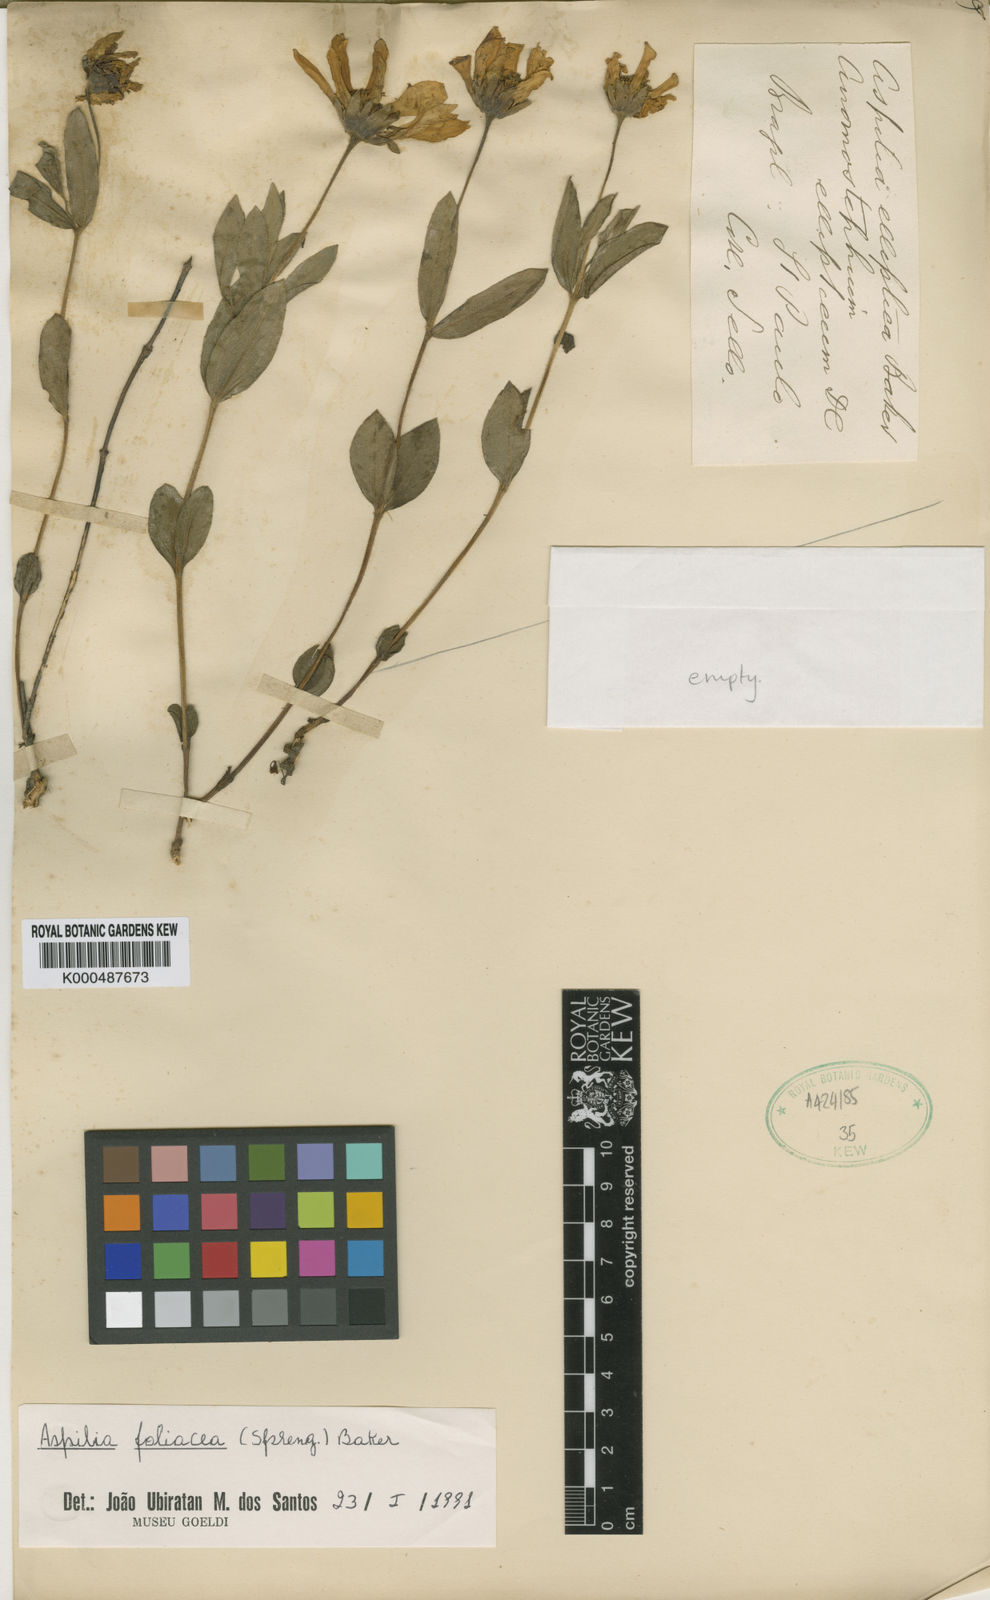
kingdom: Plantae
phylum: Tracheophyta
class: Magnoliopsida
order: Asterales
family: Asteraceae
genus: Wedelia
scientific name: Wedelia elliptica
